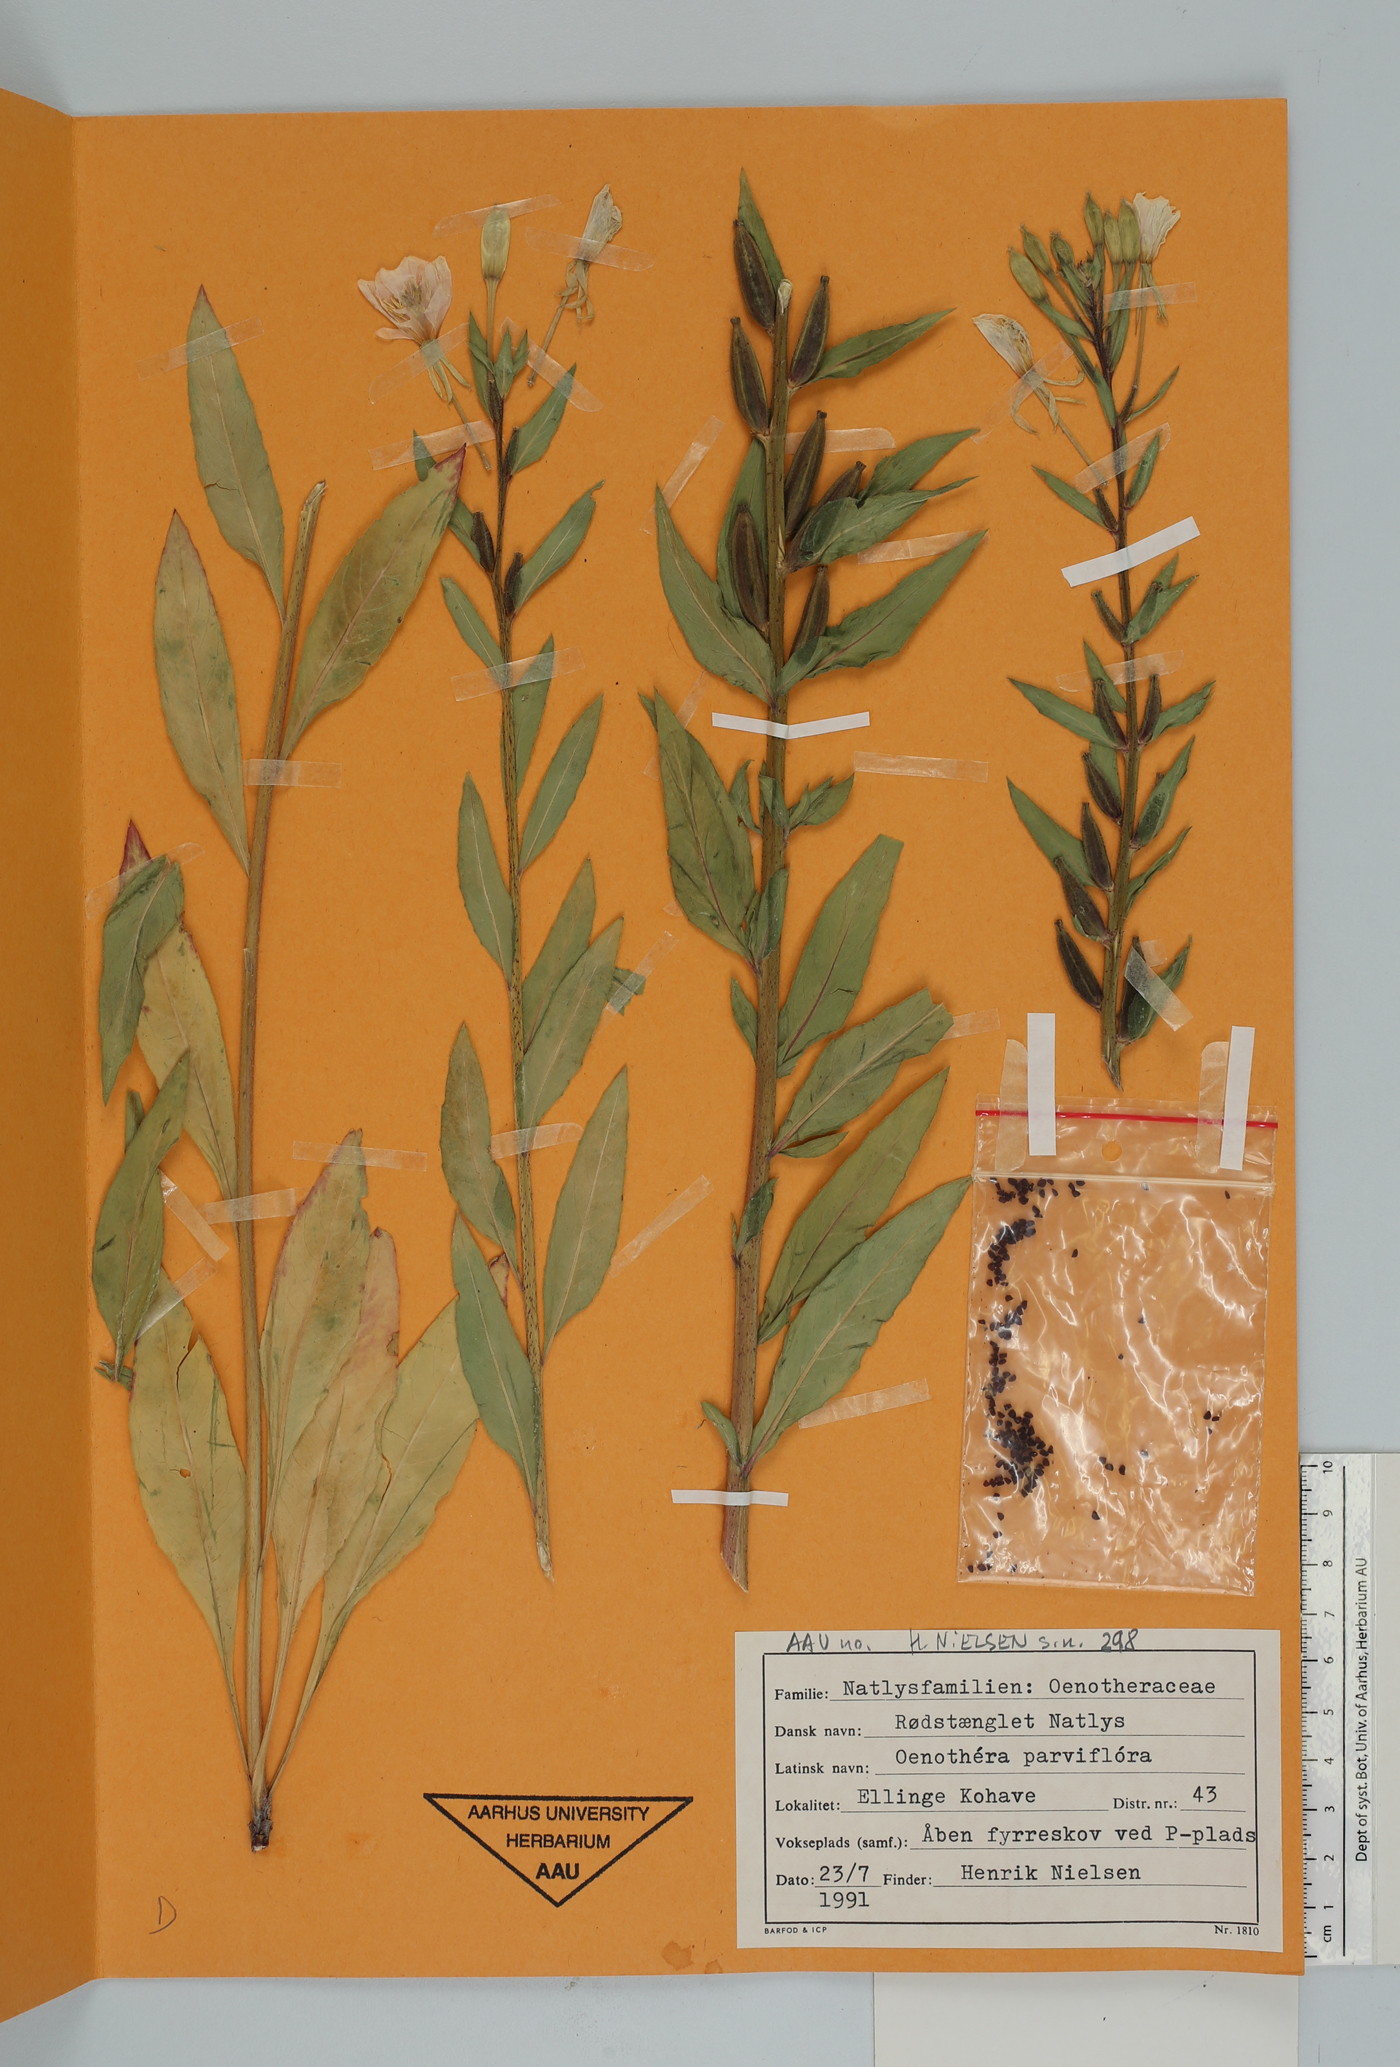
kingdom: Plantae
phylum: Tracheophyta
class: Magnoliopsida
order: Myrtales
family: Onagraceae
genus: Oenothera
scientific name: Oenothera parviflora
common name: Least evening-primrose
